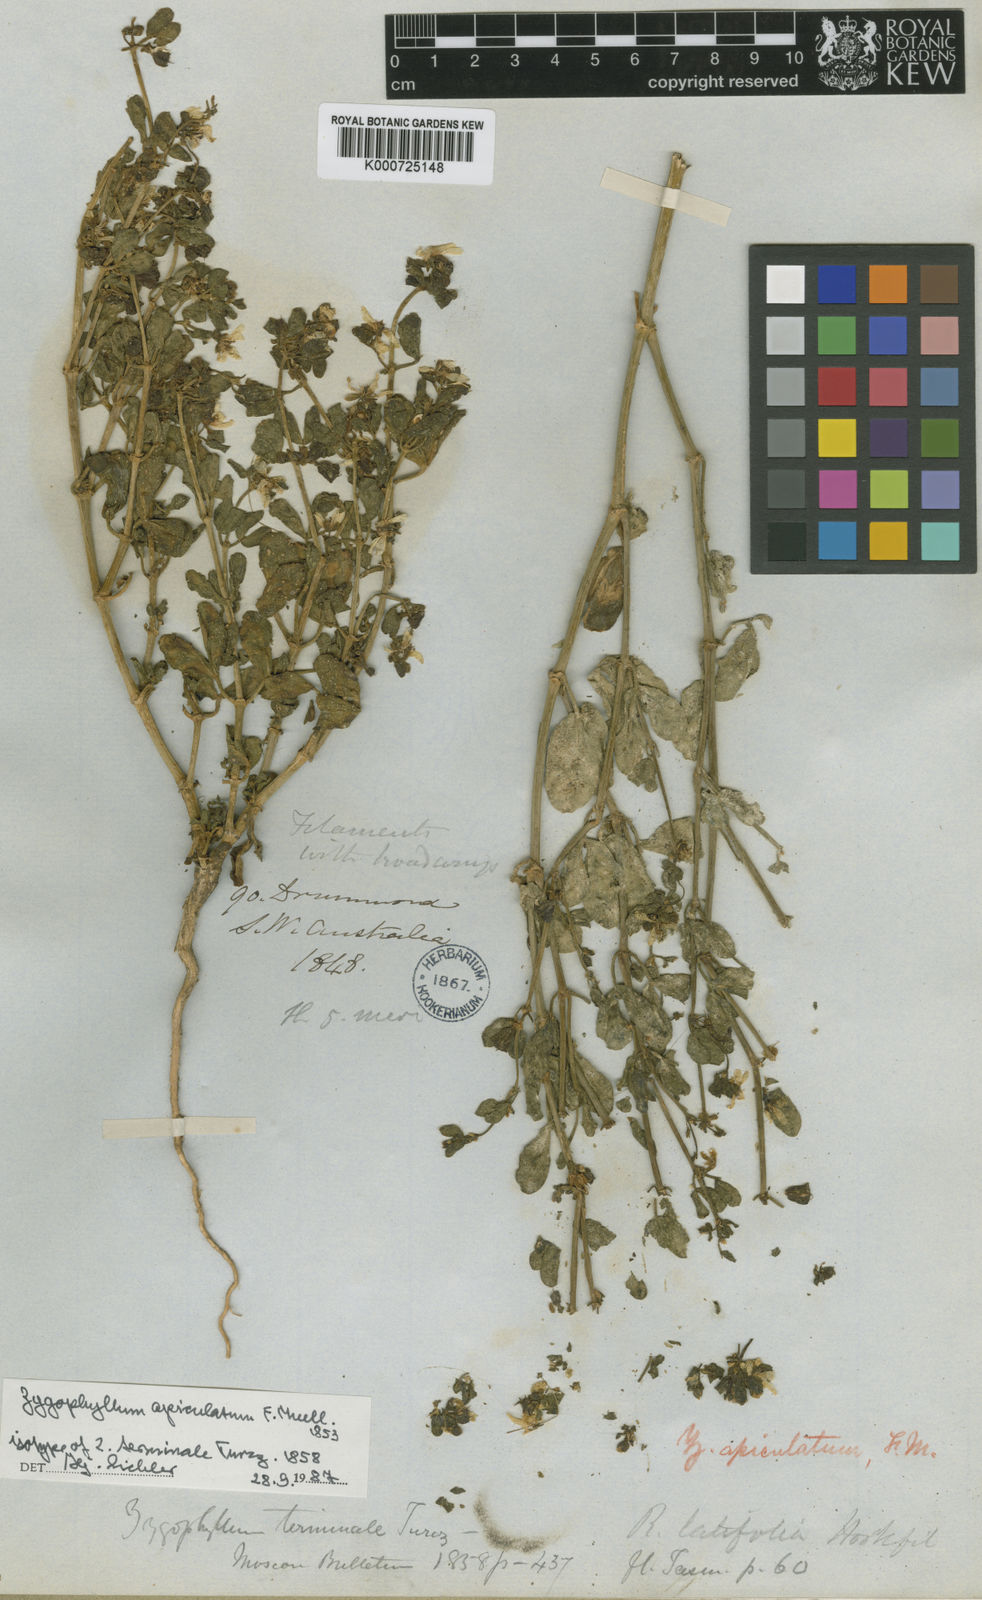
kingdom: Plantae
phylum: Tracheophyta
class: Magnoliopsida
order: Zygophyllales
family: Zygophyllaceae
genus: Roepera
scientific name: Roepera apiculata
